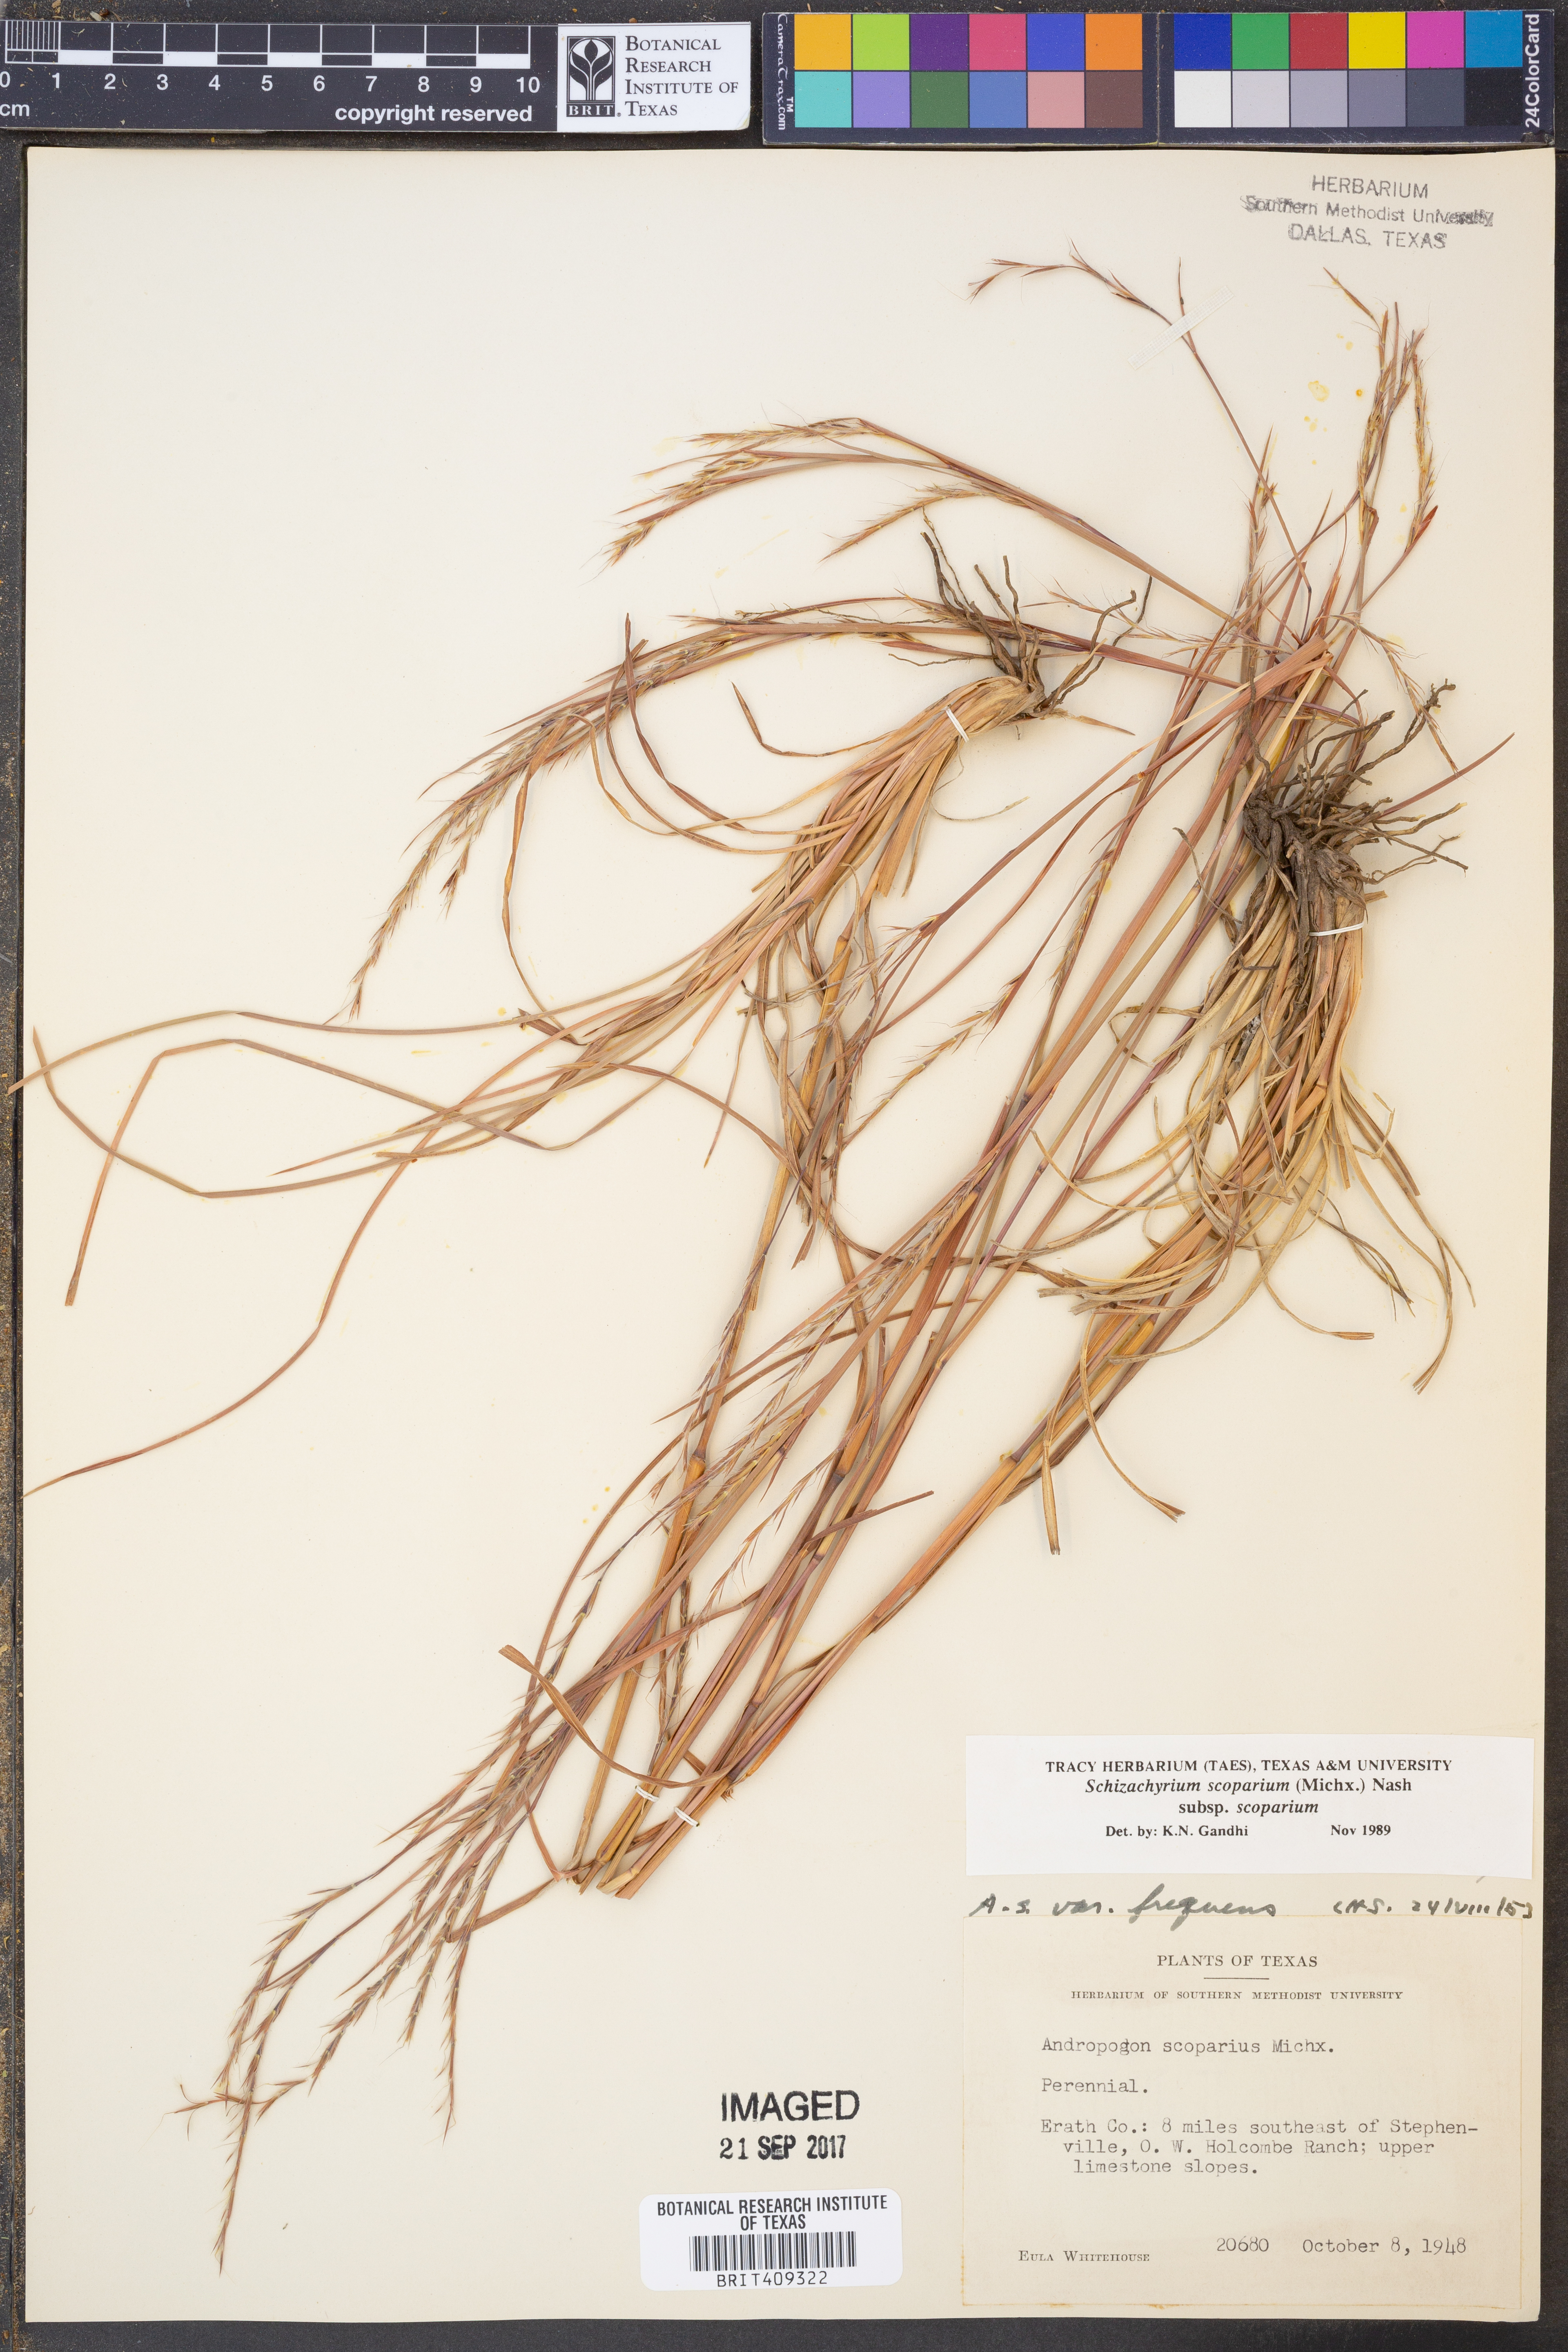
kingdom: Plantae
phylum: Tracheophyta
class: Liliopsida
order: Poales
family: Poaceae
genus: Schizachyrium
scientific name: Schizachyrium scoparium
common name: Little bluestem
